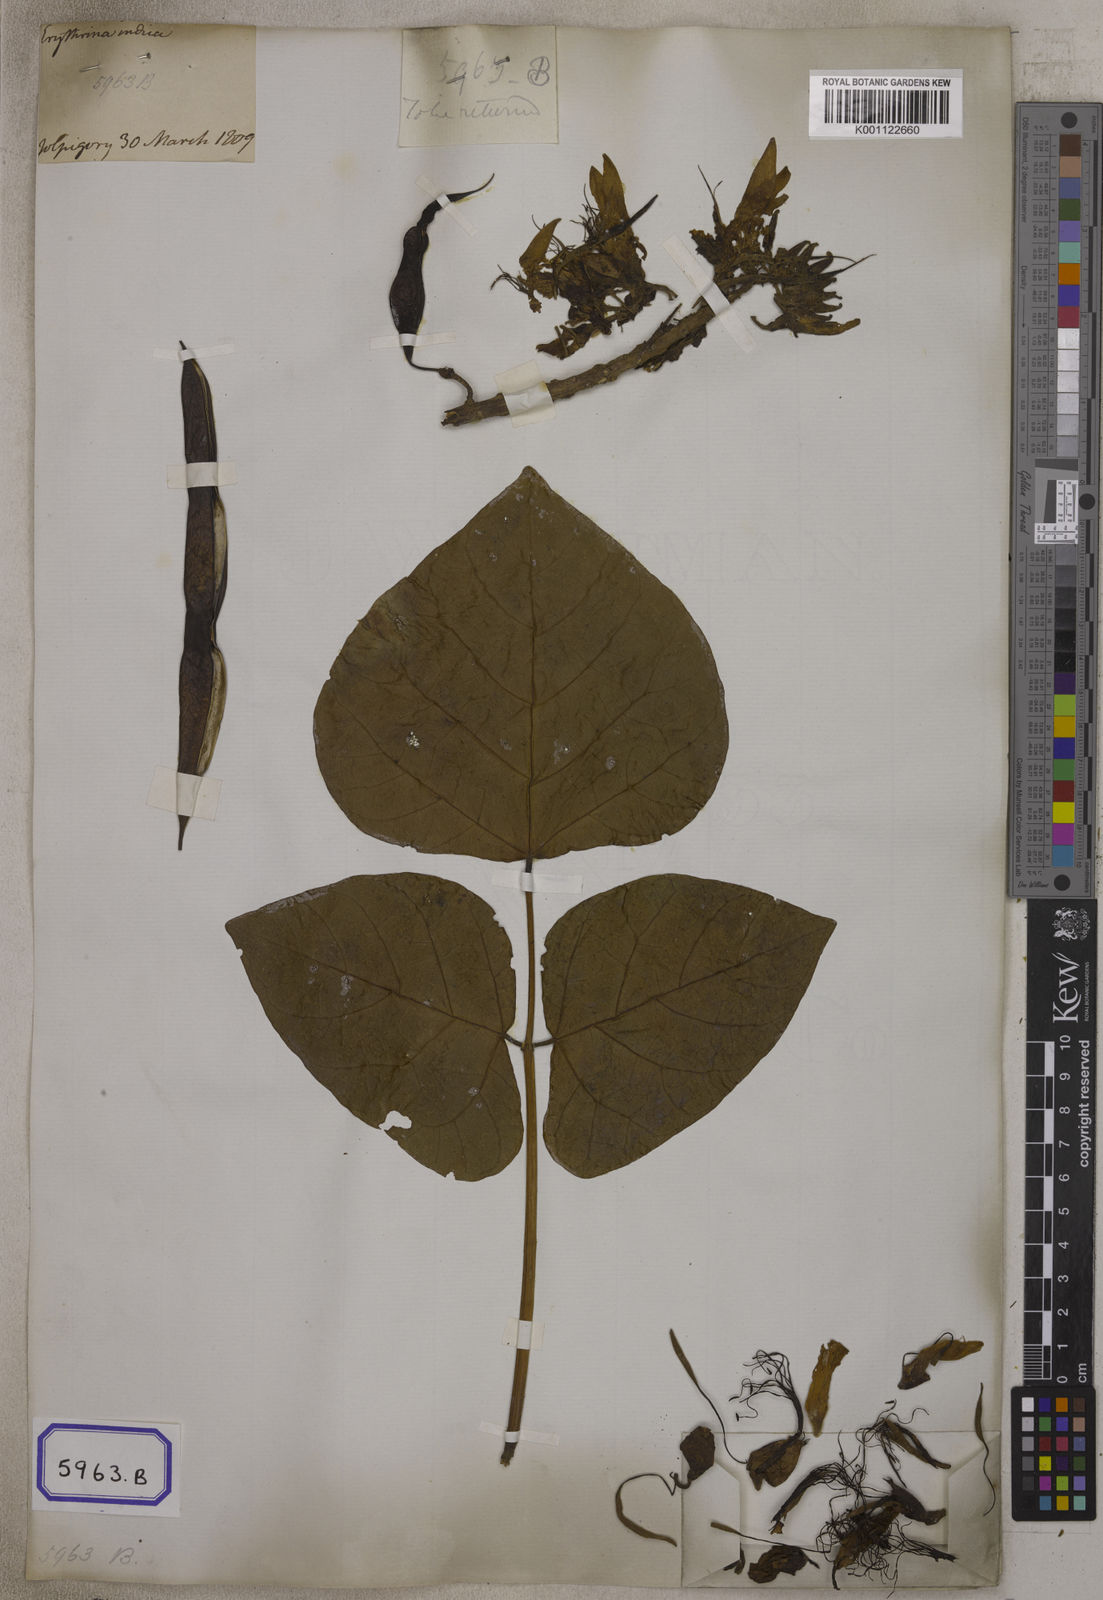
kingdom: Plantae
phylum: Tracheophyta
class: Magnoliopsida
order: Fabales
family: Fabaceae
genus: Erythrina
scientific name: Erythrina variegata
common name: Indian coral tree
